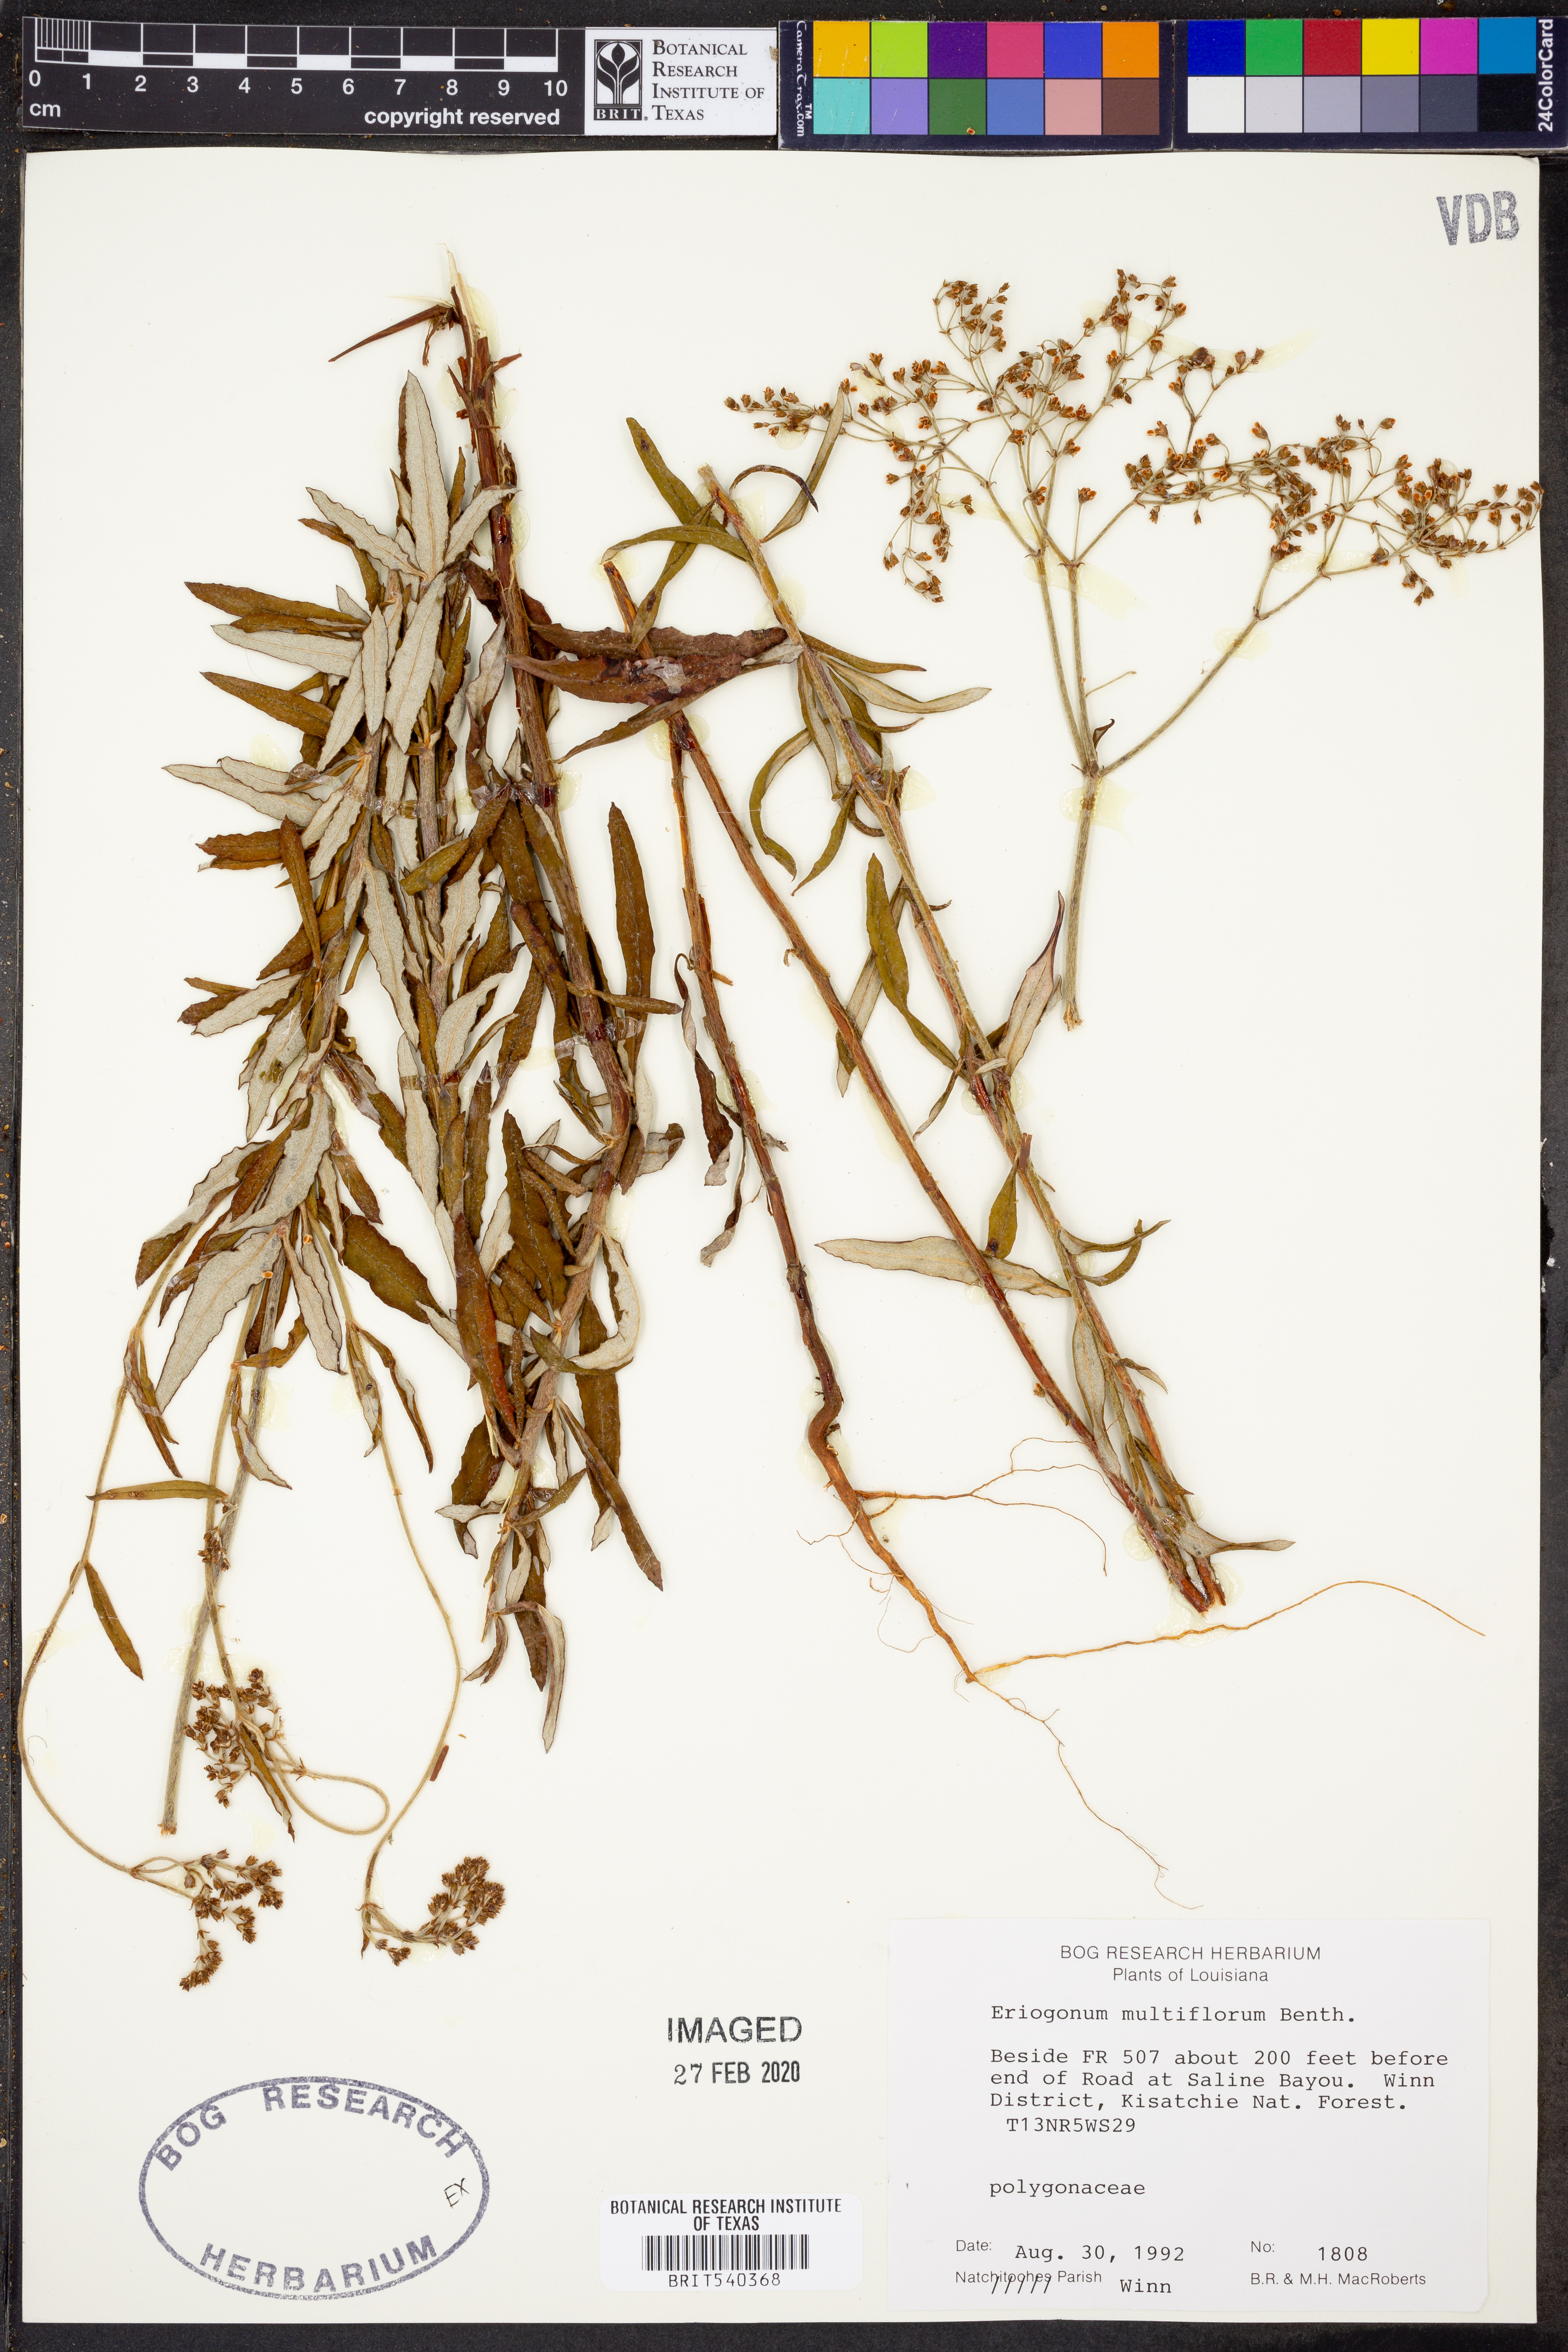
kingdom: Plantae
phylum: Tracheophyta
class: Magnoliopsida
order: Caryophyllales
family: Polygonaceae
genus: Eriogonum
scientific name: Eriogonum multiflorum
